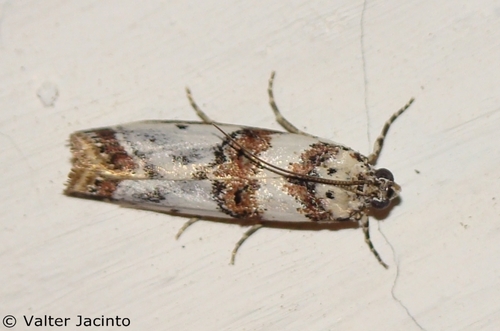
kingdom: Animalia
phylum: Arthropoda
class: Insecta
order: Lepidoptera
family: Pyralidae
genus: Asalebria
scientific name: Asalebria geminella
